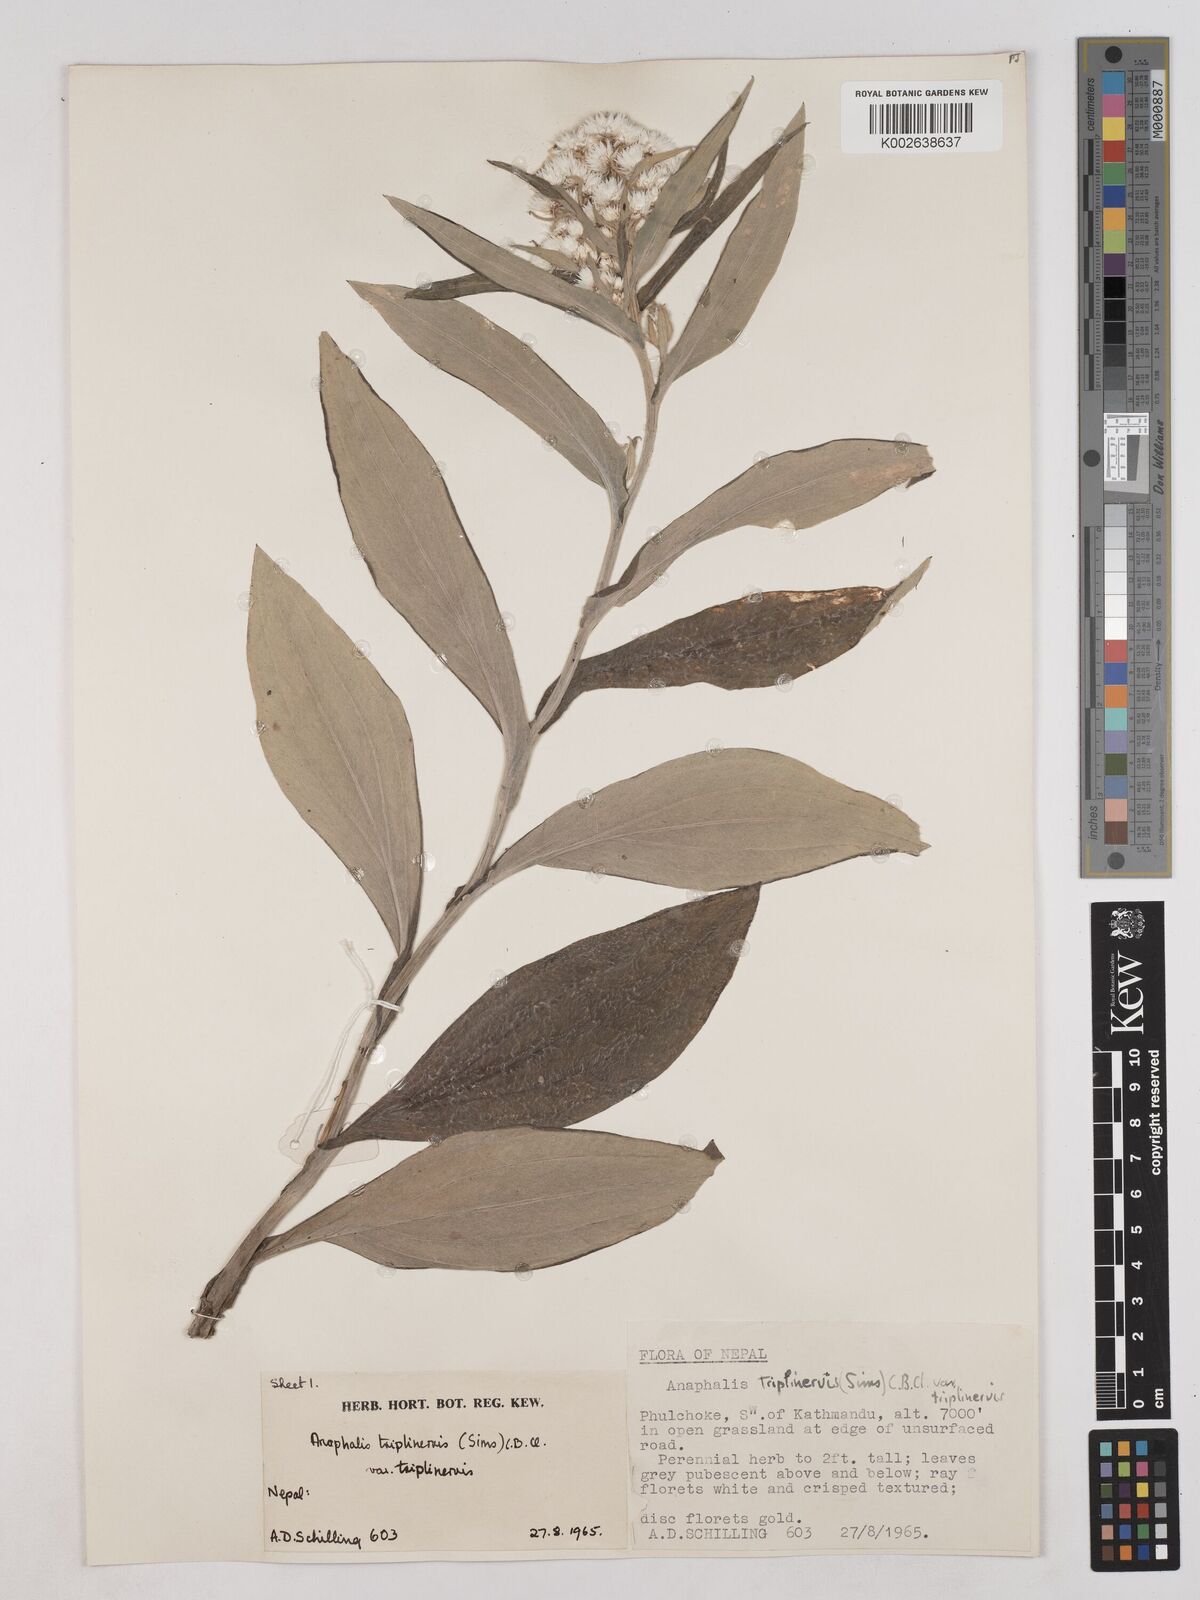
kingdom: Plantae
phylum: Tracheophyta
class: Magnoliopsida
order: Asterales
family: Asteraceae
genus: Anaphalis
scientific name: Anaphalis triplinervis
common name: Pearly everlasting
